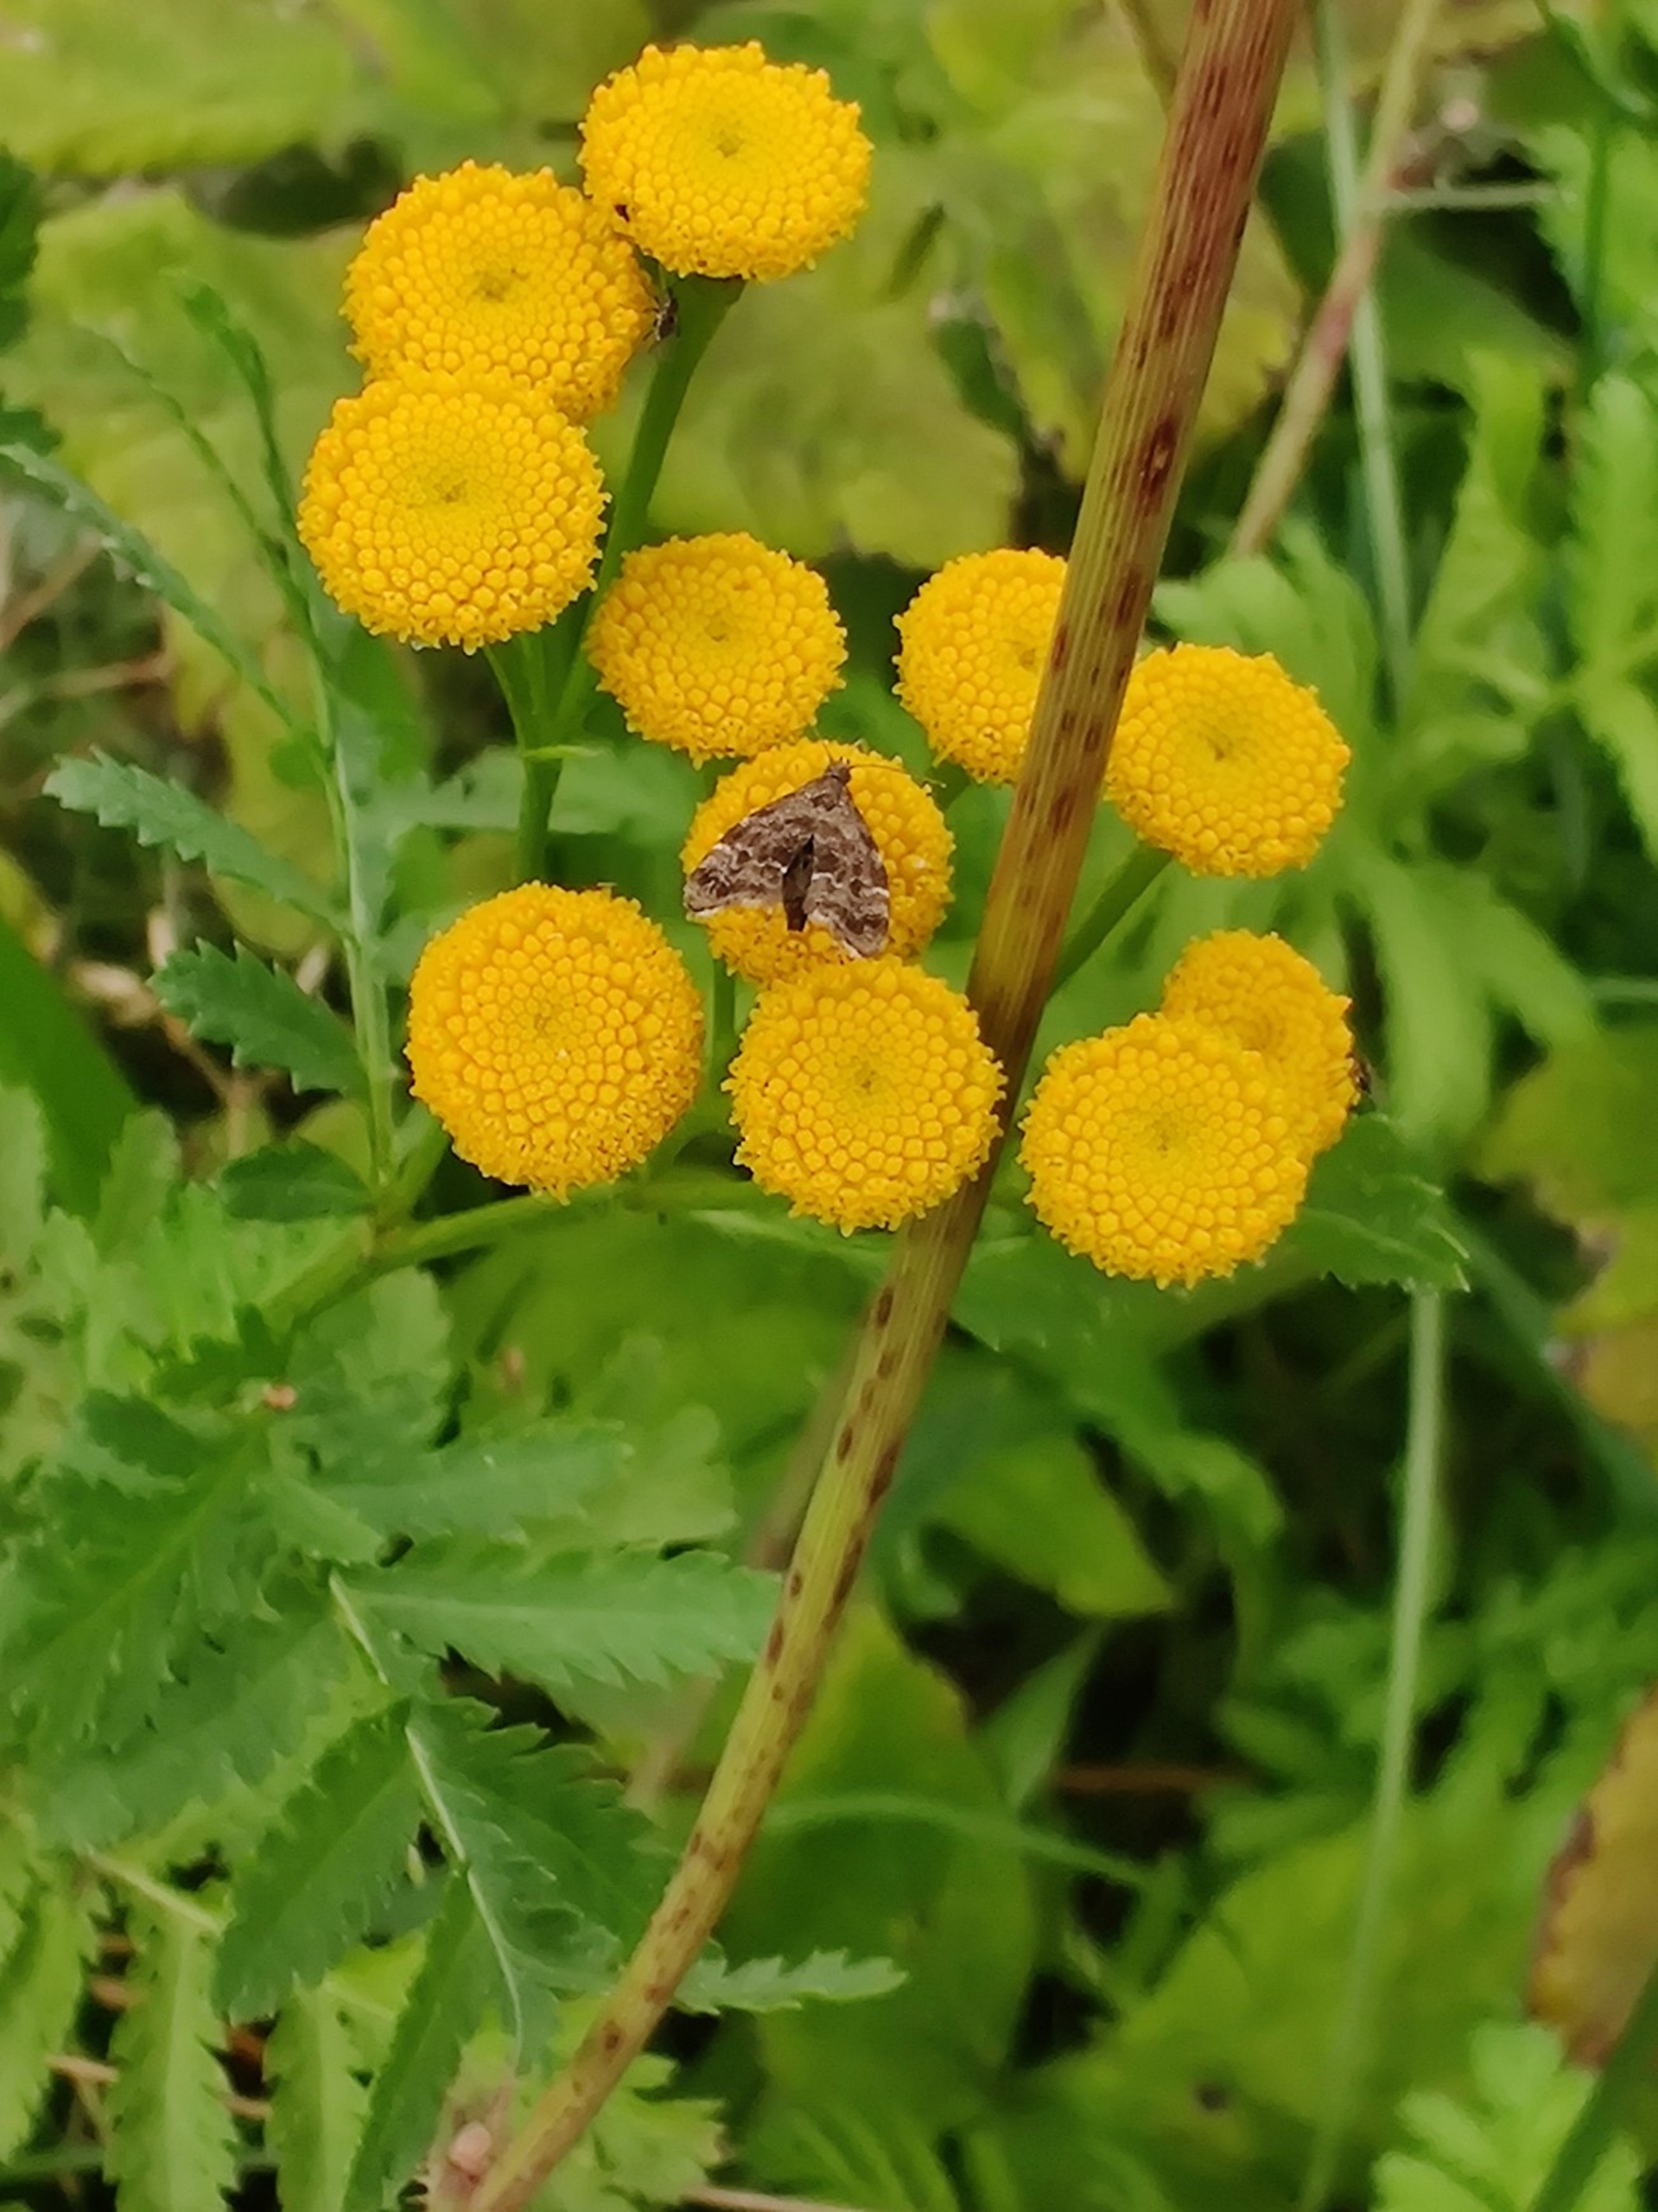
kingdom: Animalia
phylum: Arthropoda
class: Insecta
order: Lepidoptera
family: Choreutidae
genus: Anthophila
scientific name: Anthophila fabriciana
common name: Bredvinget nældevikler
